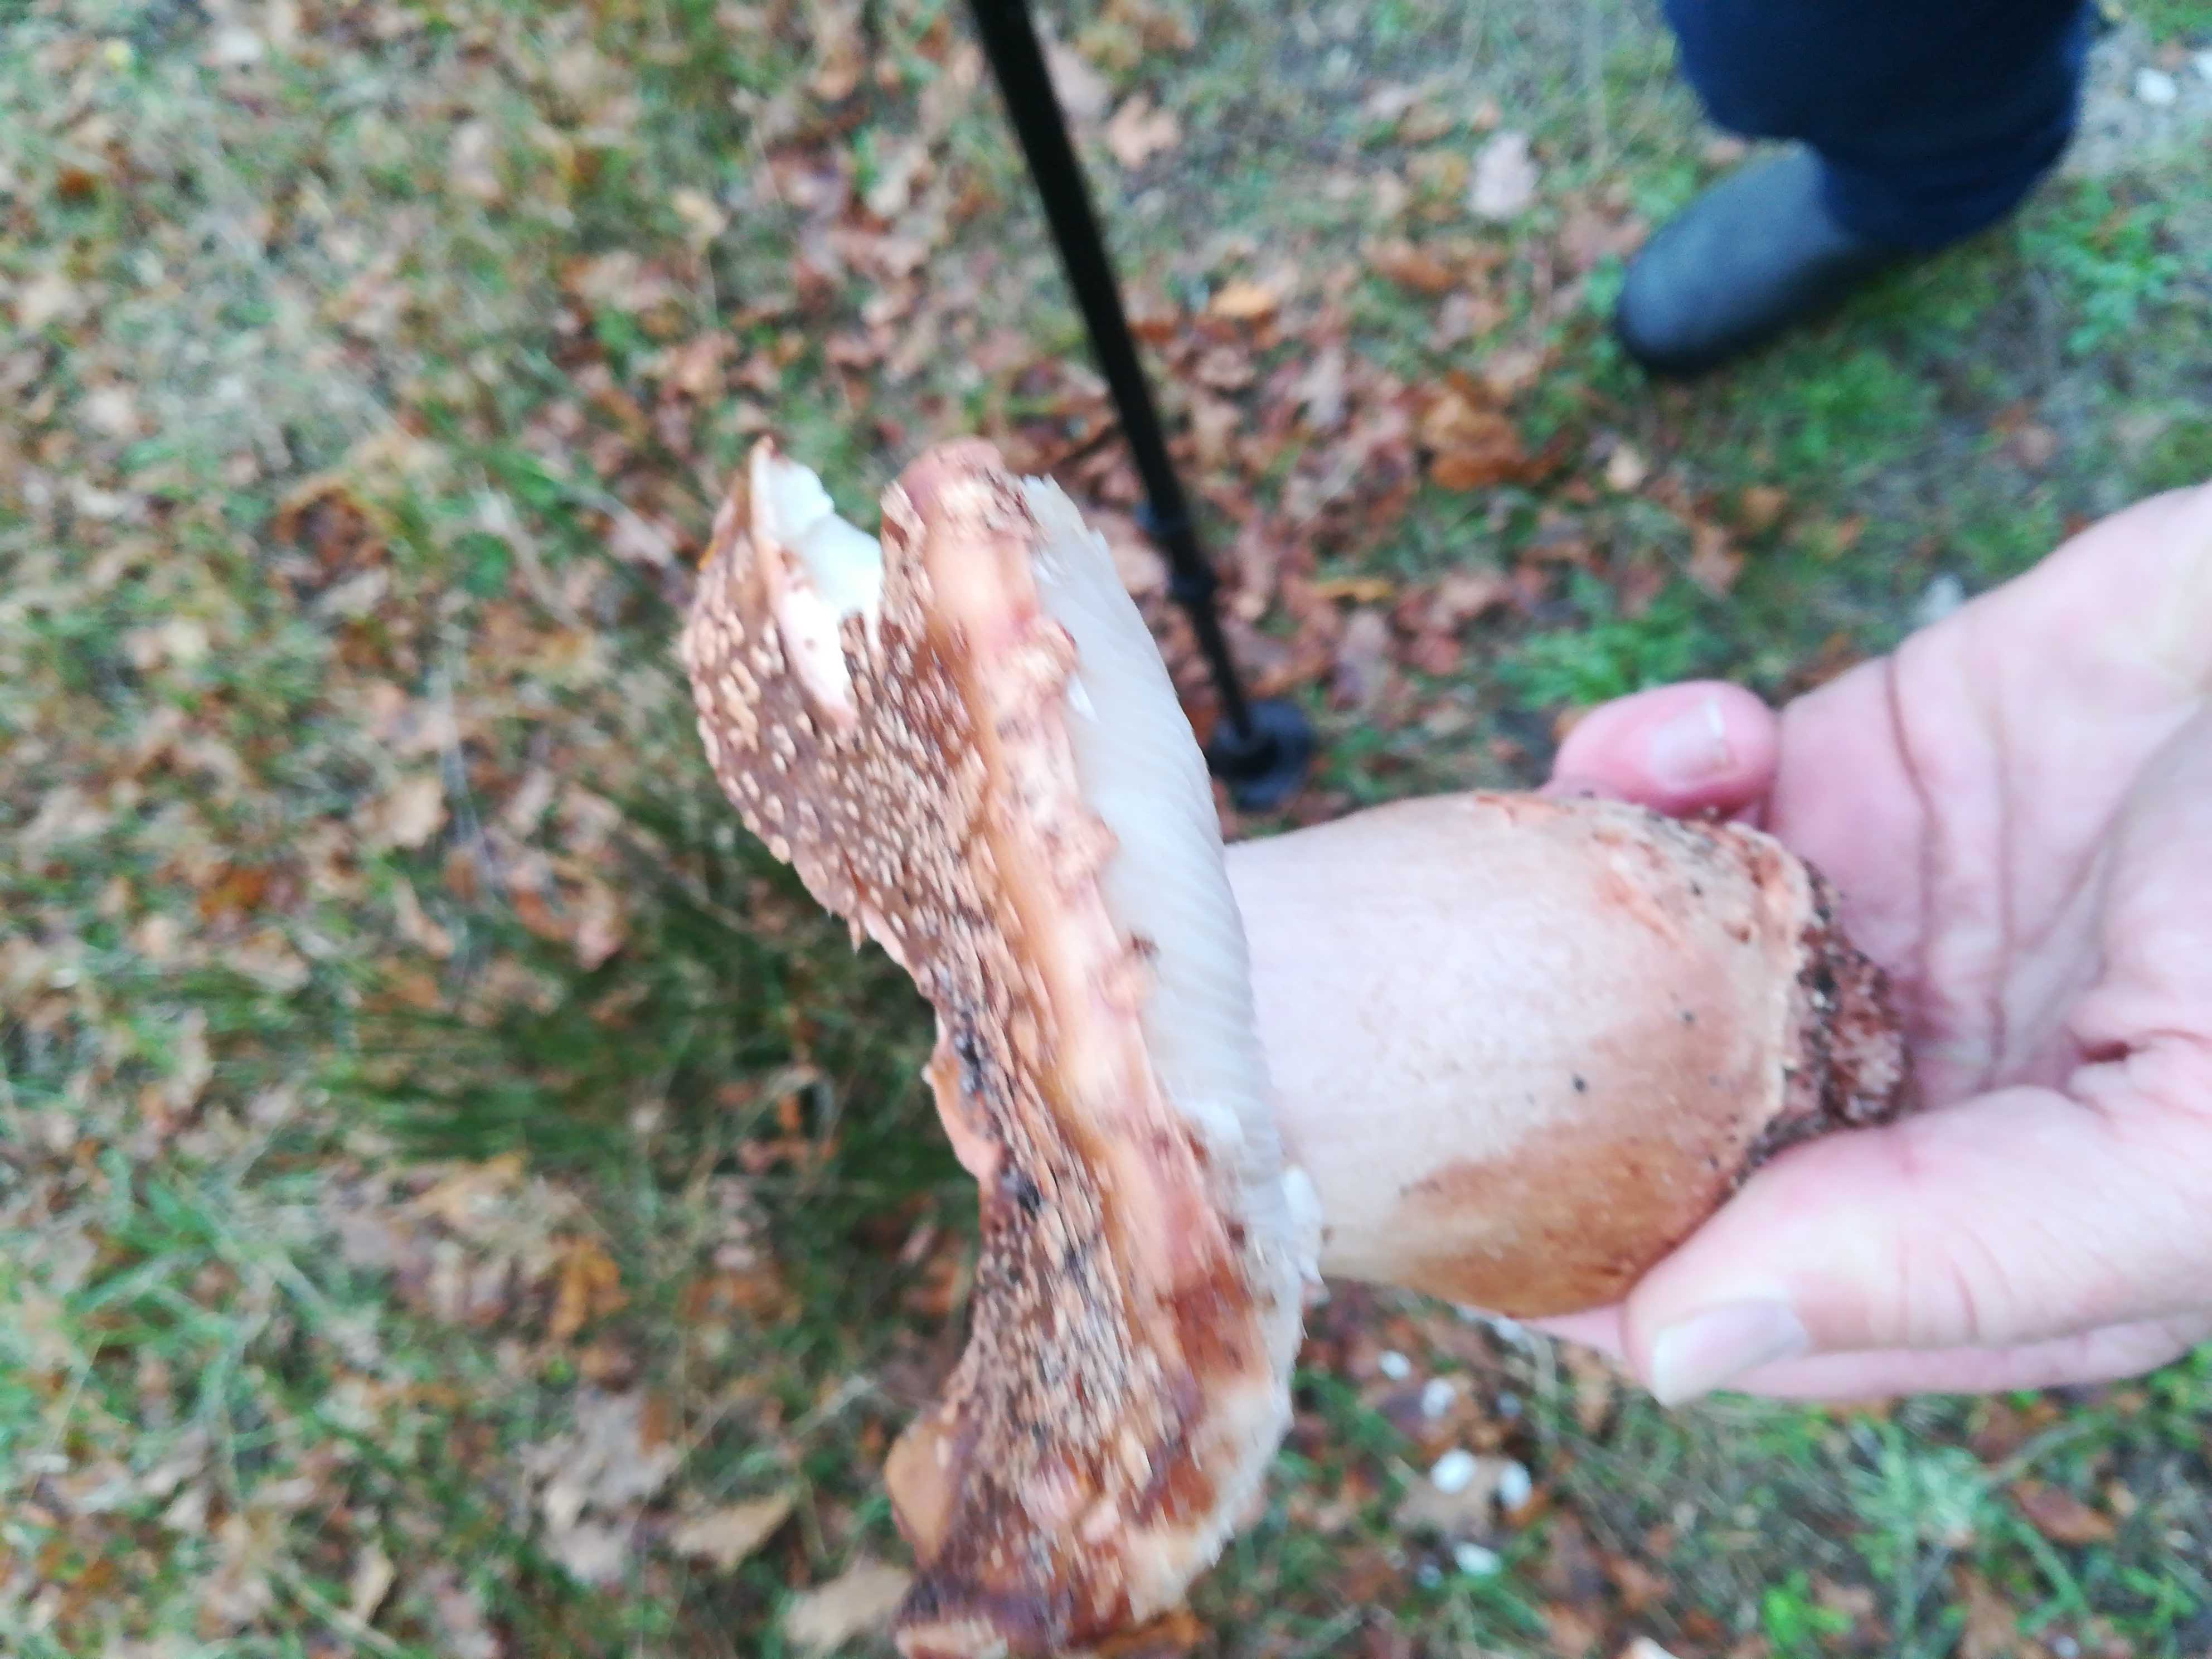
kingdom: Fungi
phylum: Basidiomycota
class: Agaricomycetes
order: Agaricales
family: Amanitaceae
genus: Amanita
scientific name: Amanita rubescens
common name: rødmende fluesvamp
